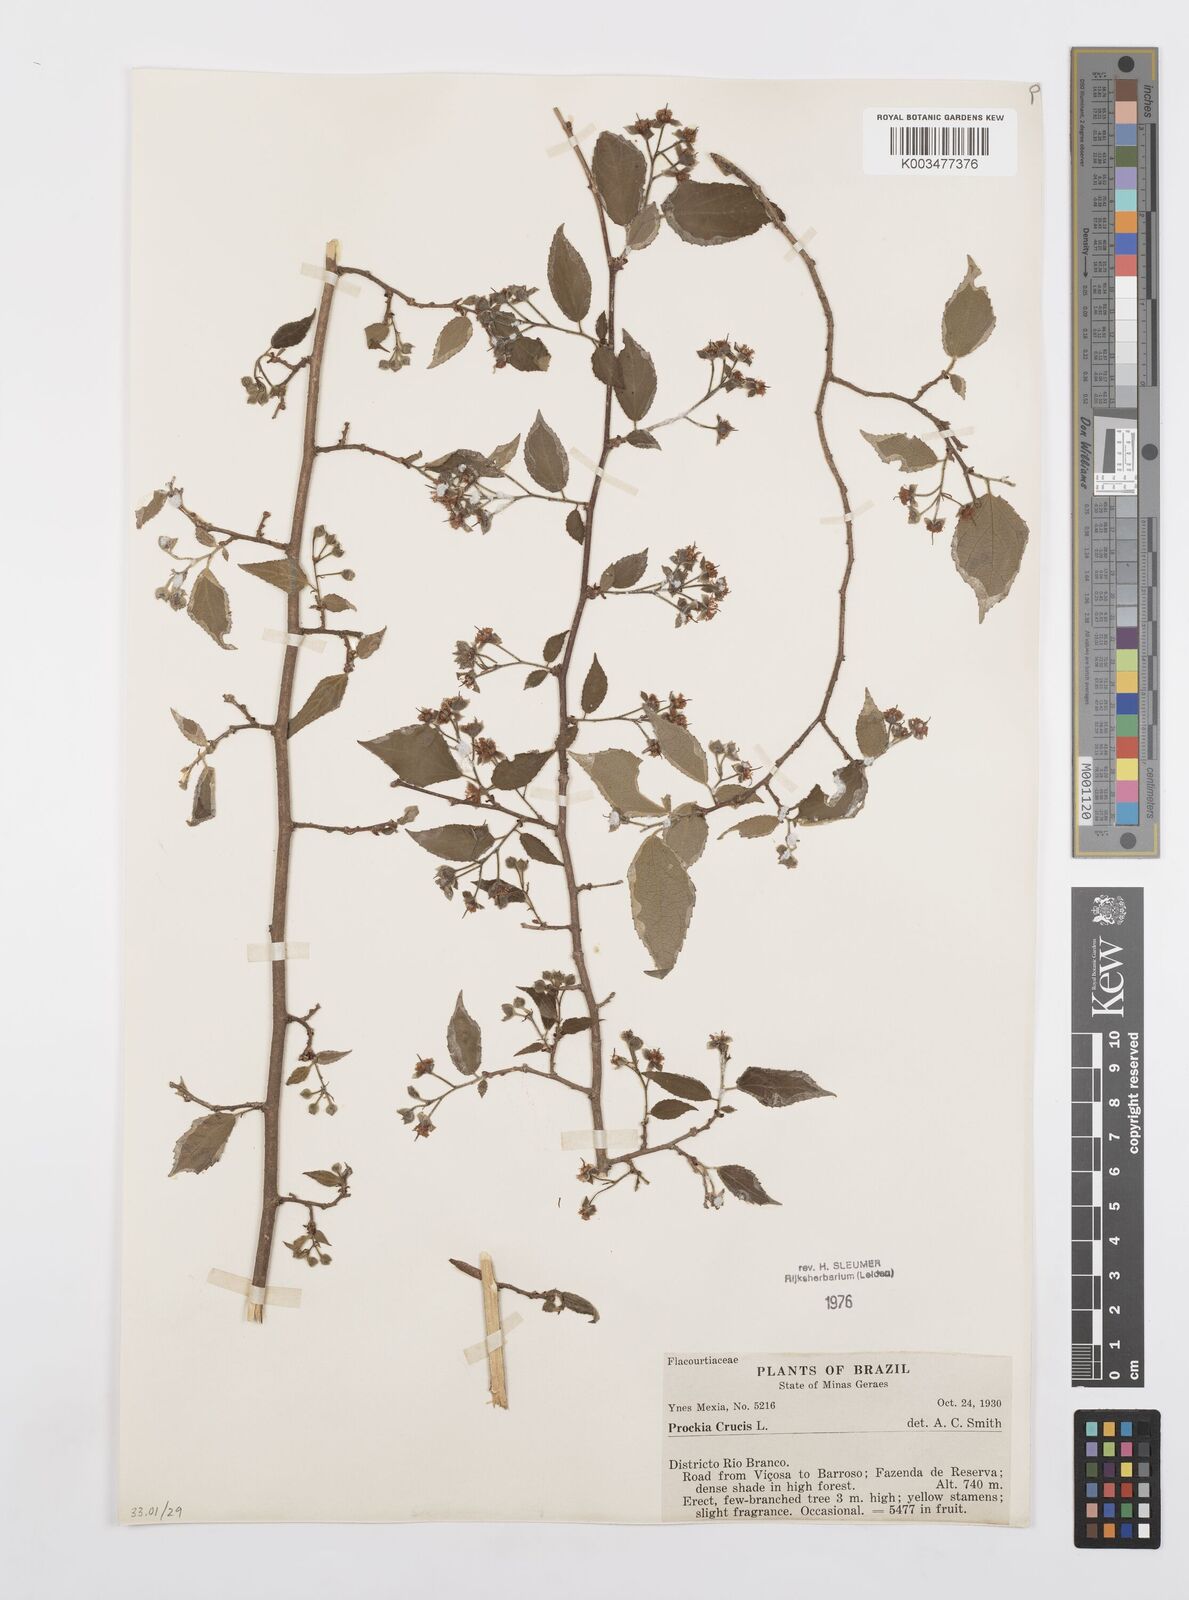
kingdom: Plantae
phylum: Tracheophyta
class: Magnoliopsida
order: Malpighiales
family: Salicaceae
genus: Prockia
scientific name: Prockia crucis
